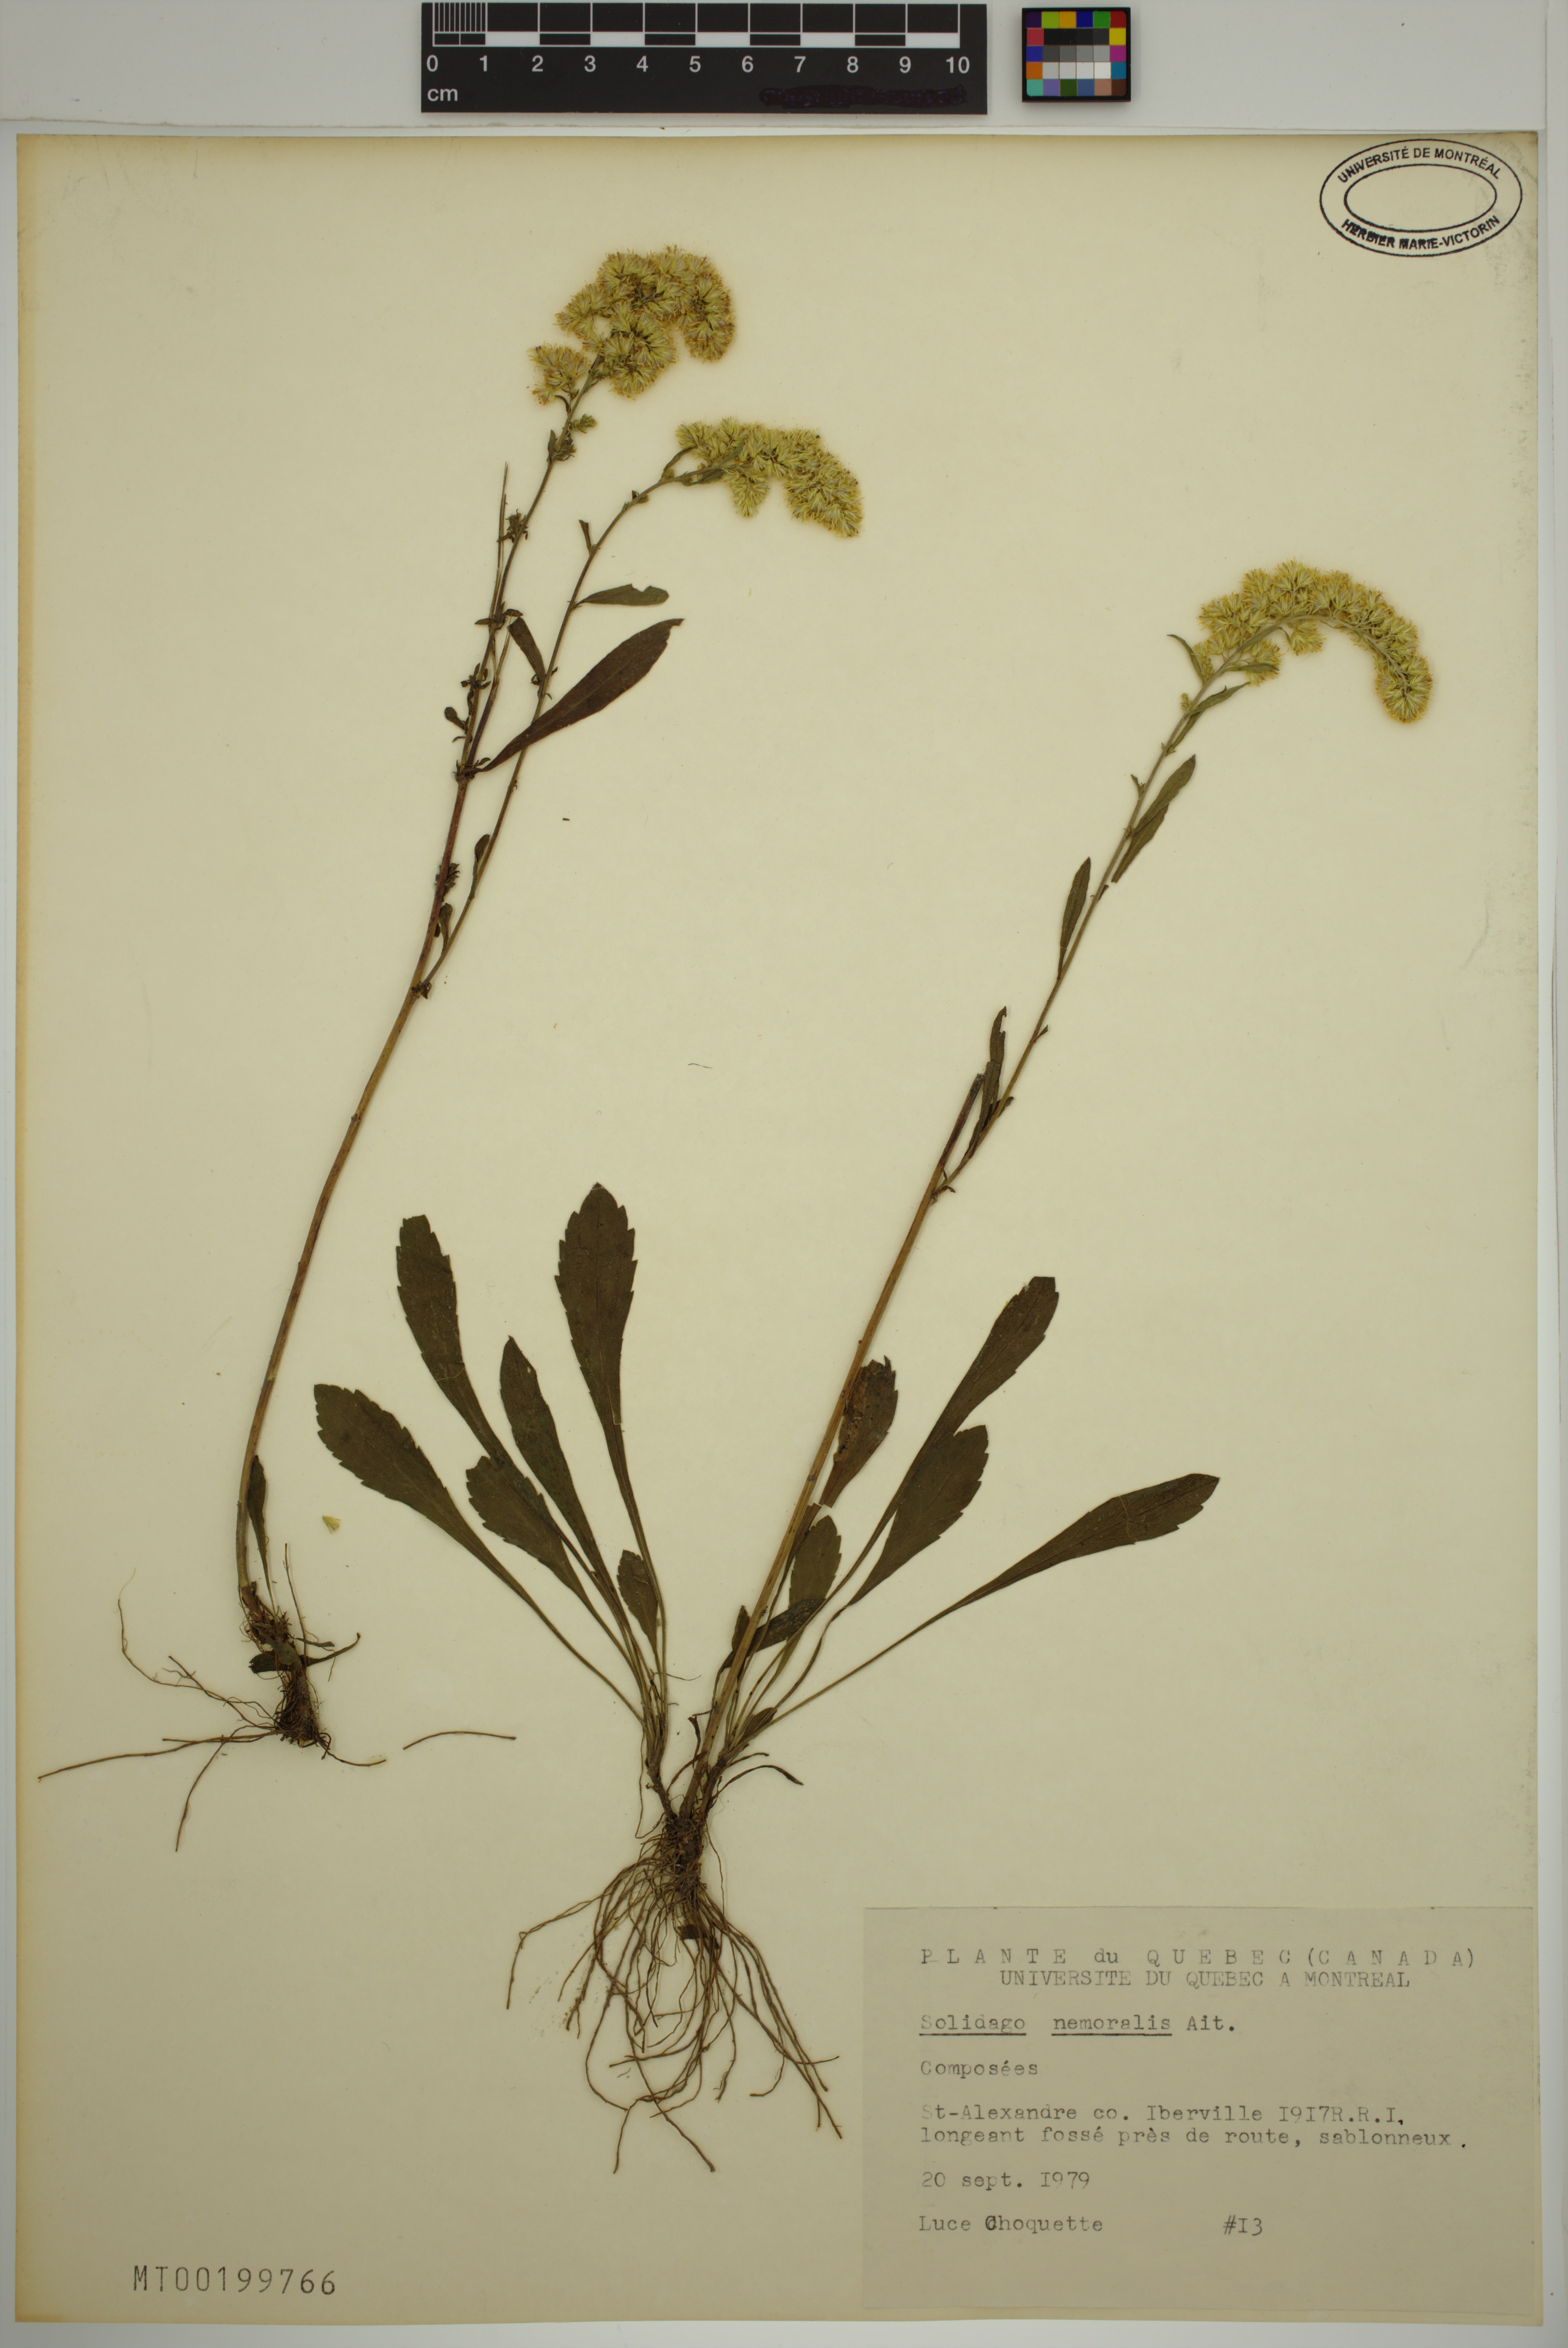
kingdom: Plantae
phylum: Tracheophyta
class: Magnoliopsida
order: Asterales
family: Asteraceae
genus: Solidago
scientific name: Solidago nemoralis
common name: Grey goldenrod
